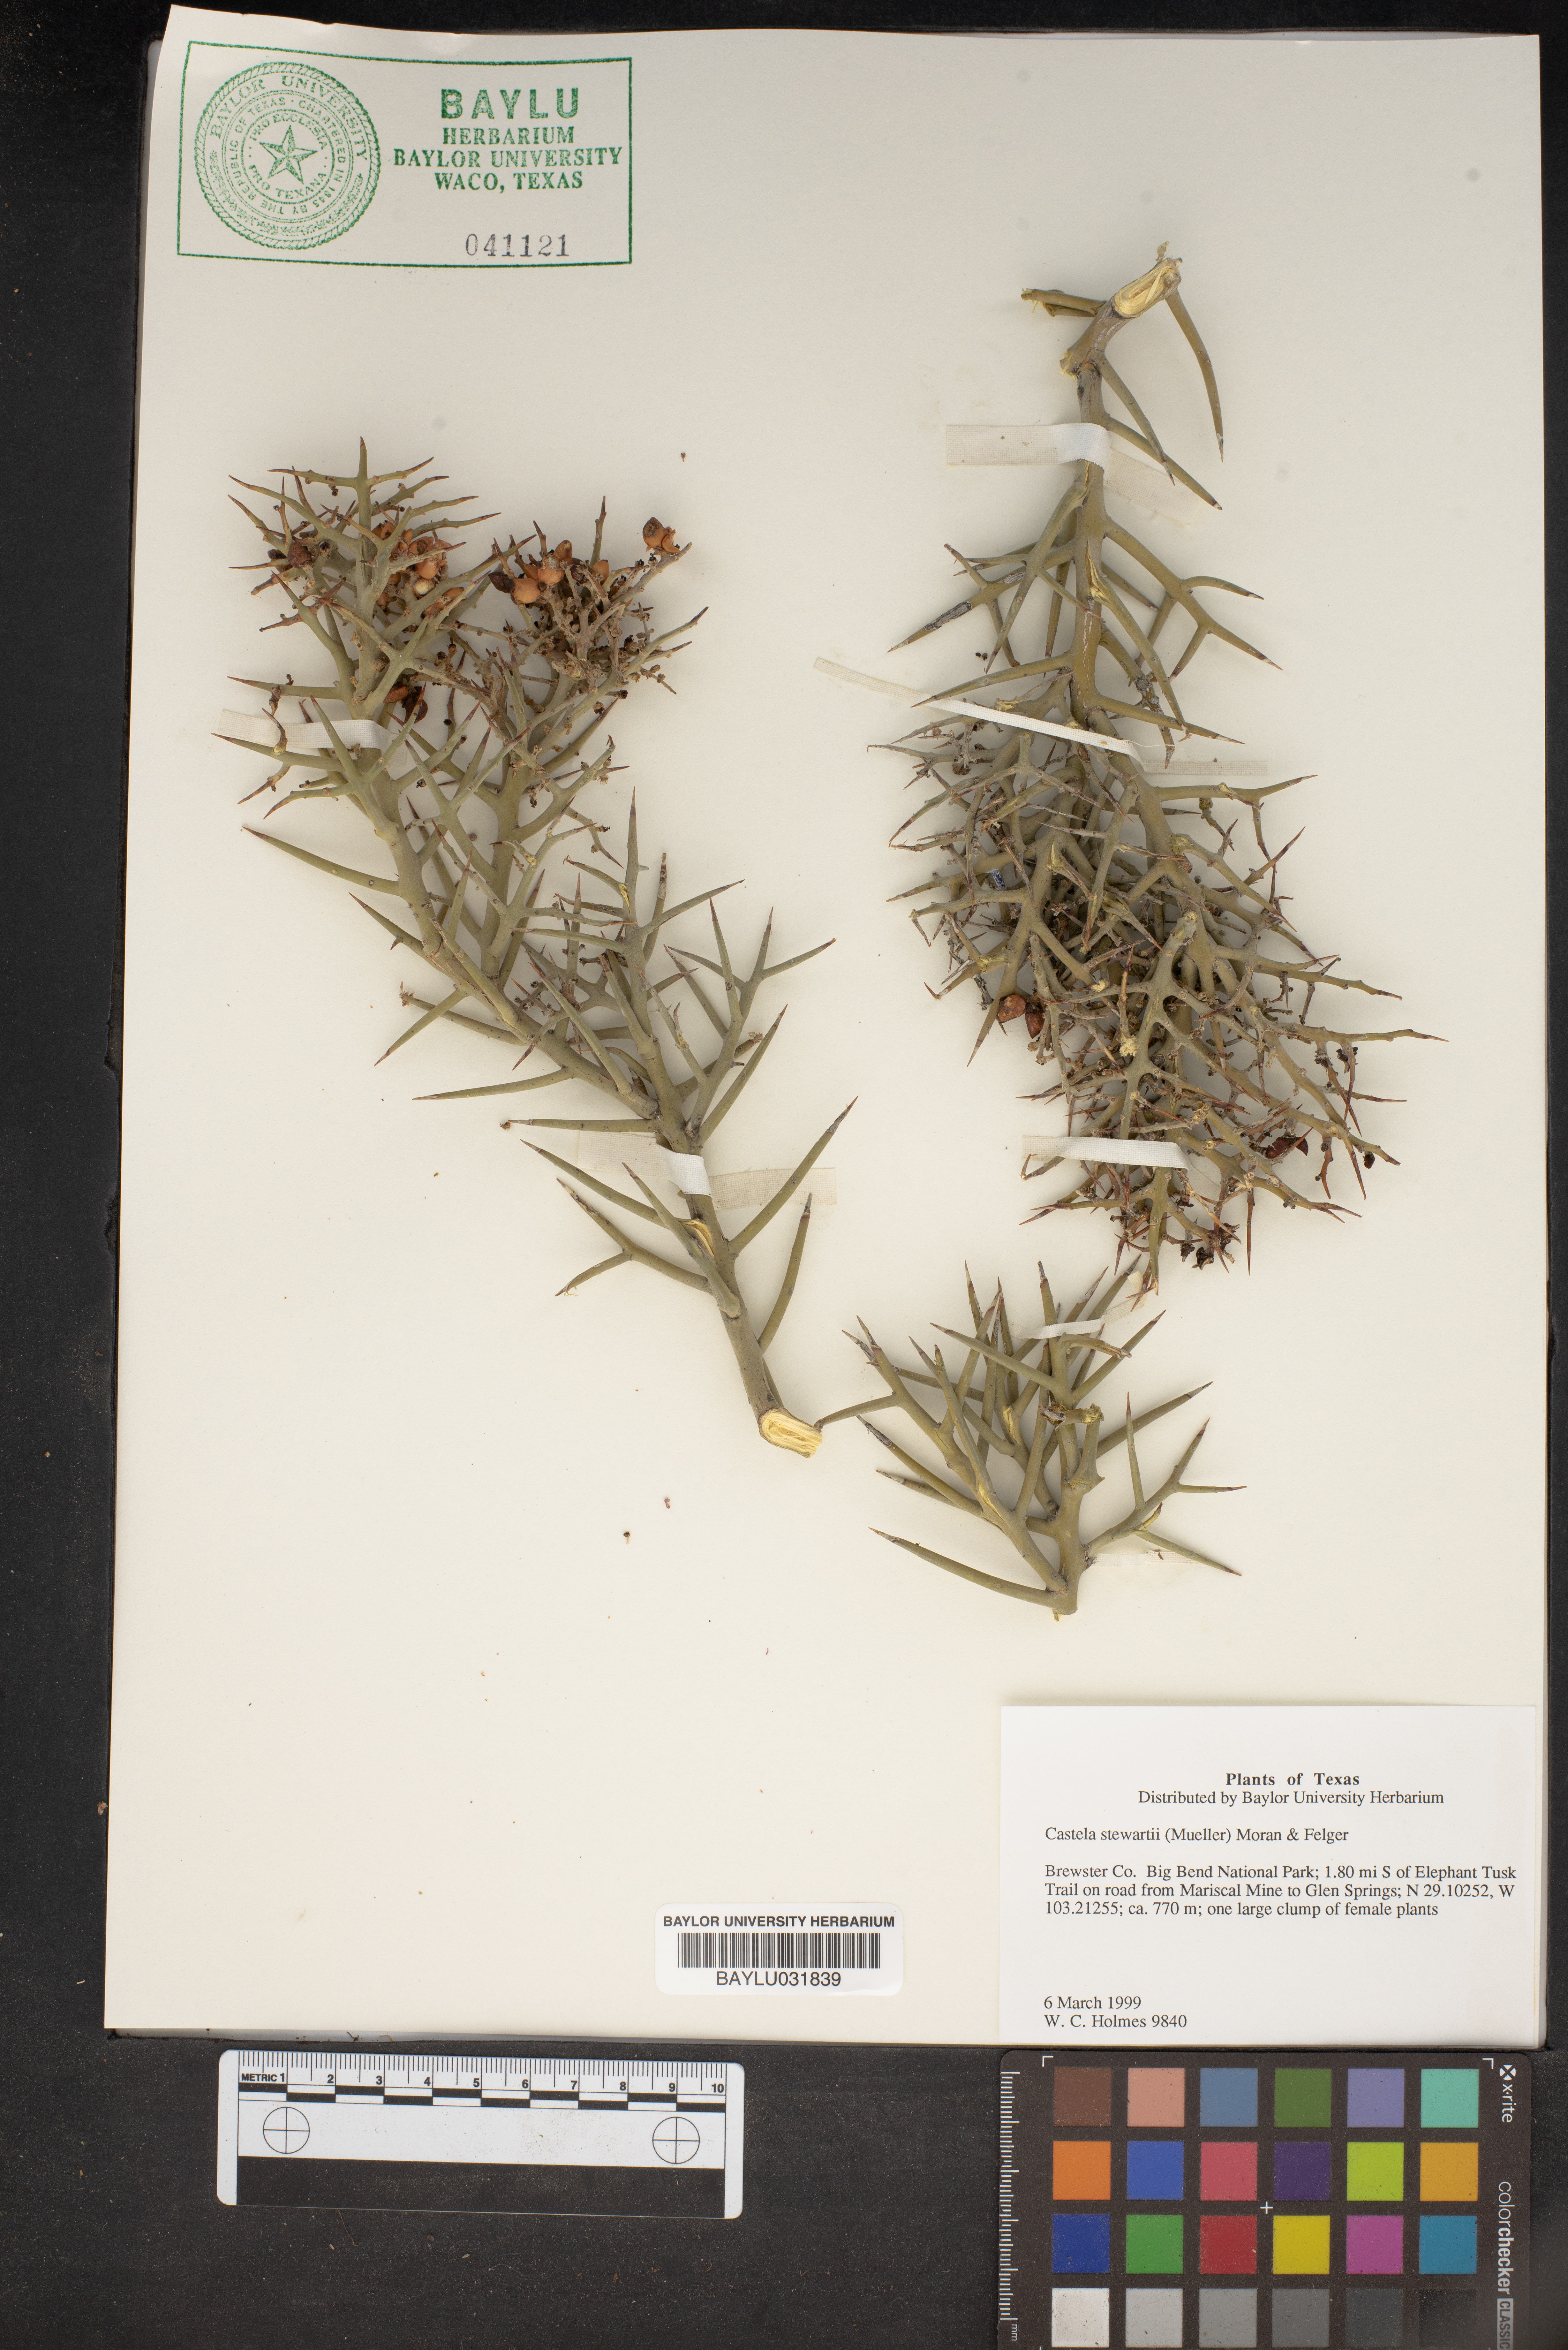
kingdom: Plantae
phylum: Tracheophyta
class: Magnoliopsida
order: Sapindales
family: Simaroubaceae
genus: Holacantha
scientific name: Holacantha stewartii
